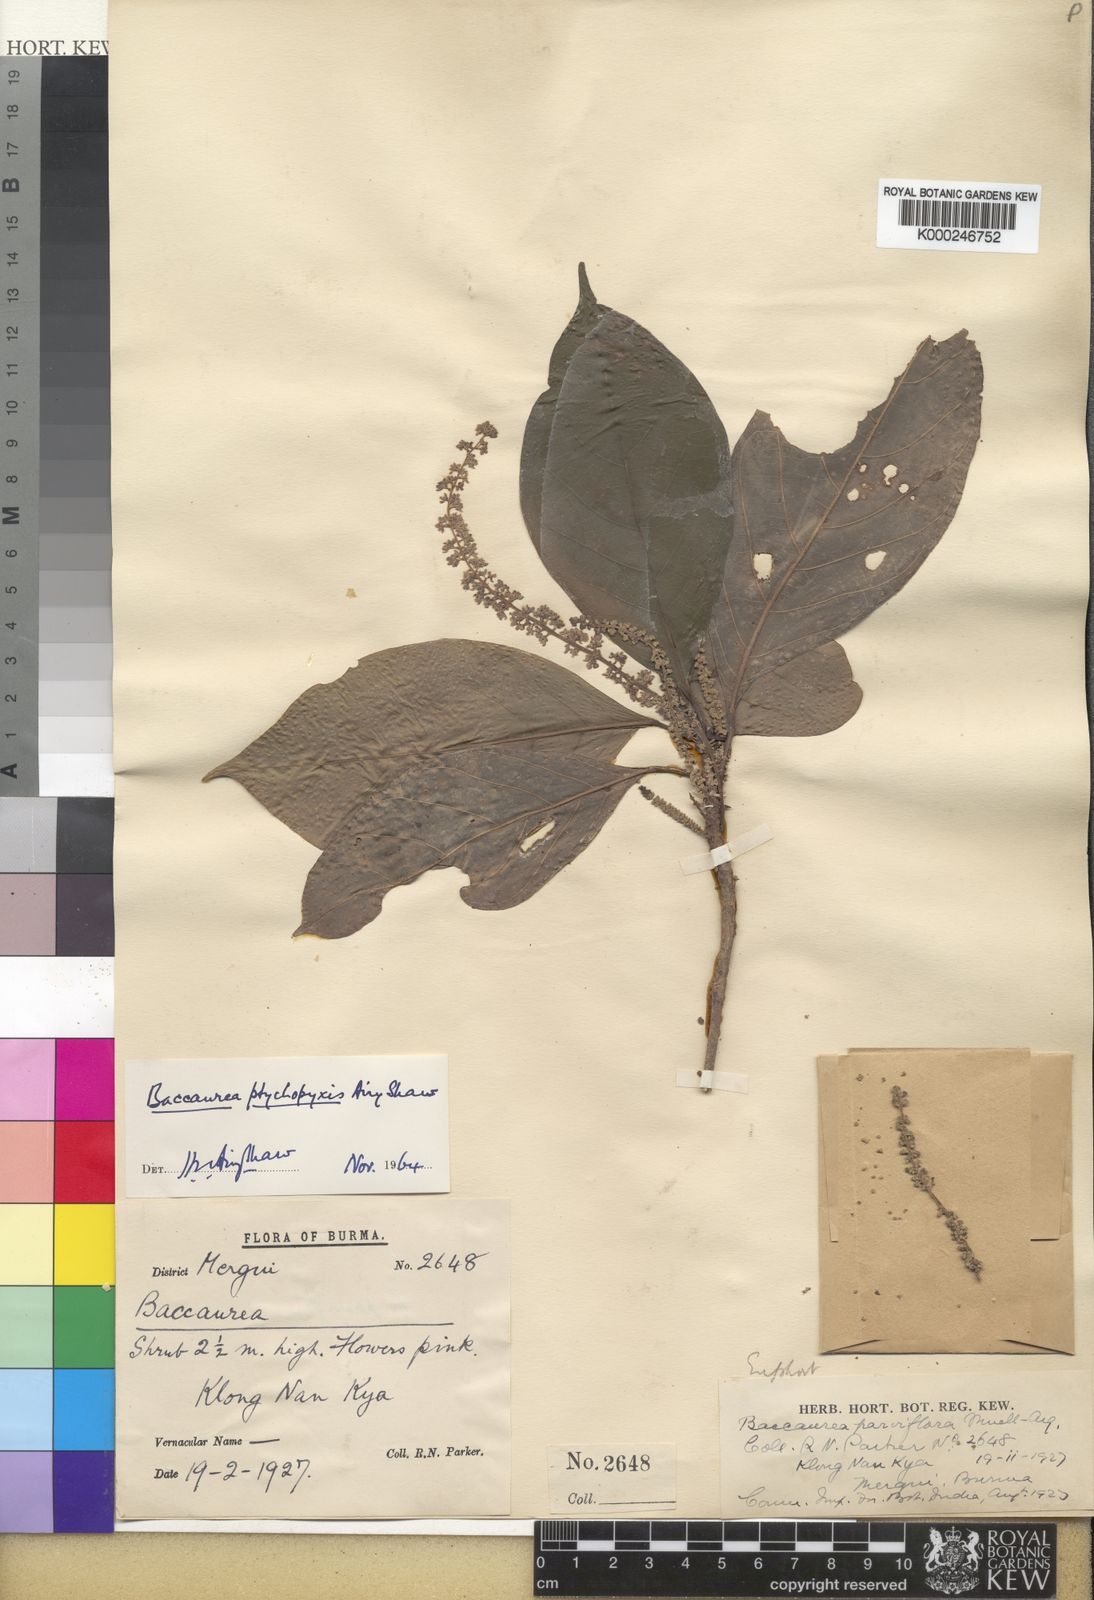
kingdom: Plantae
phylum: Tracheophyta
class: Magnoliopsida
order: Malpighiales
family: Phyllanthaceae
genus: Baccaurea
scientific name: Baccaurea ptychopyxis
